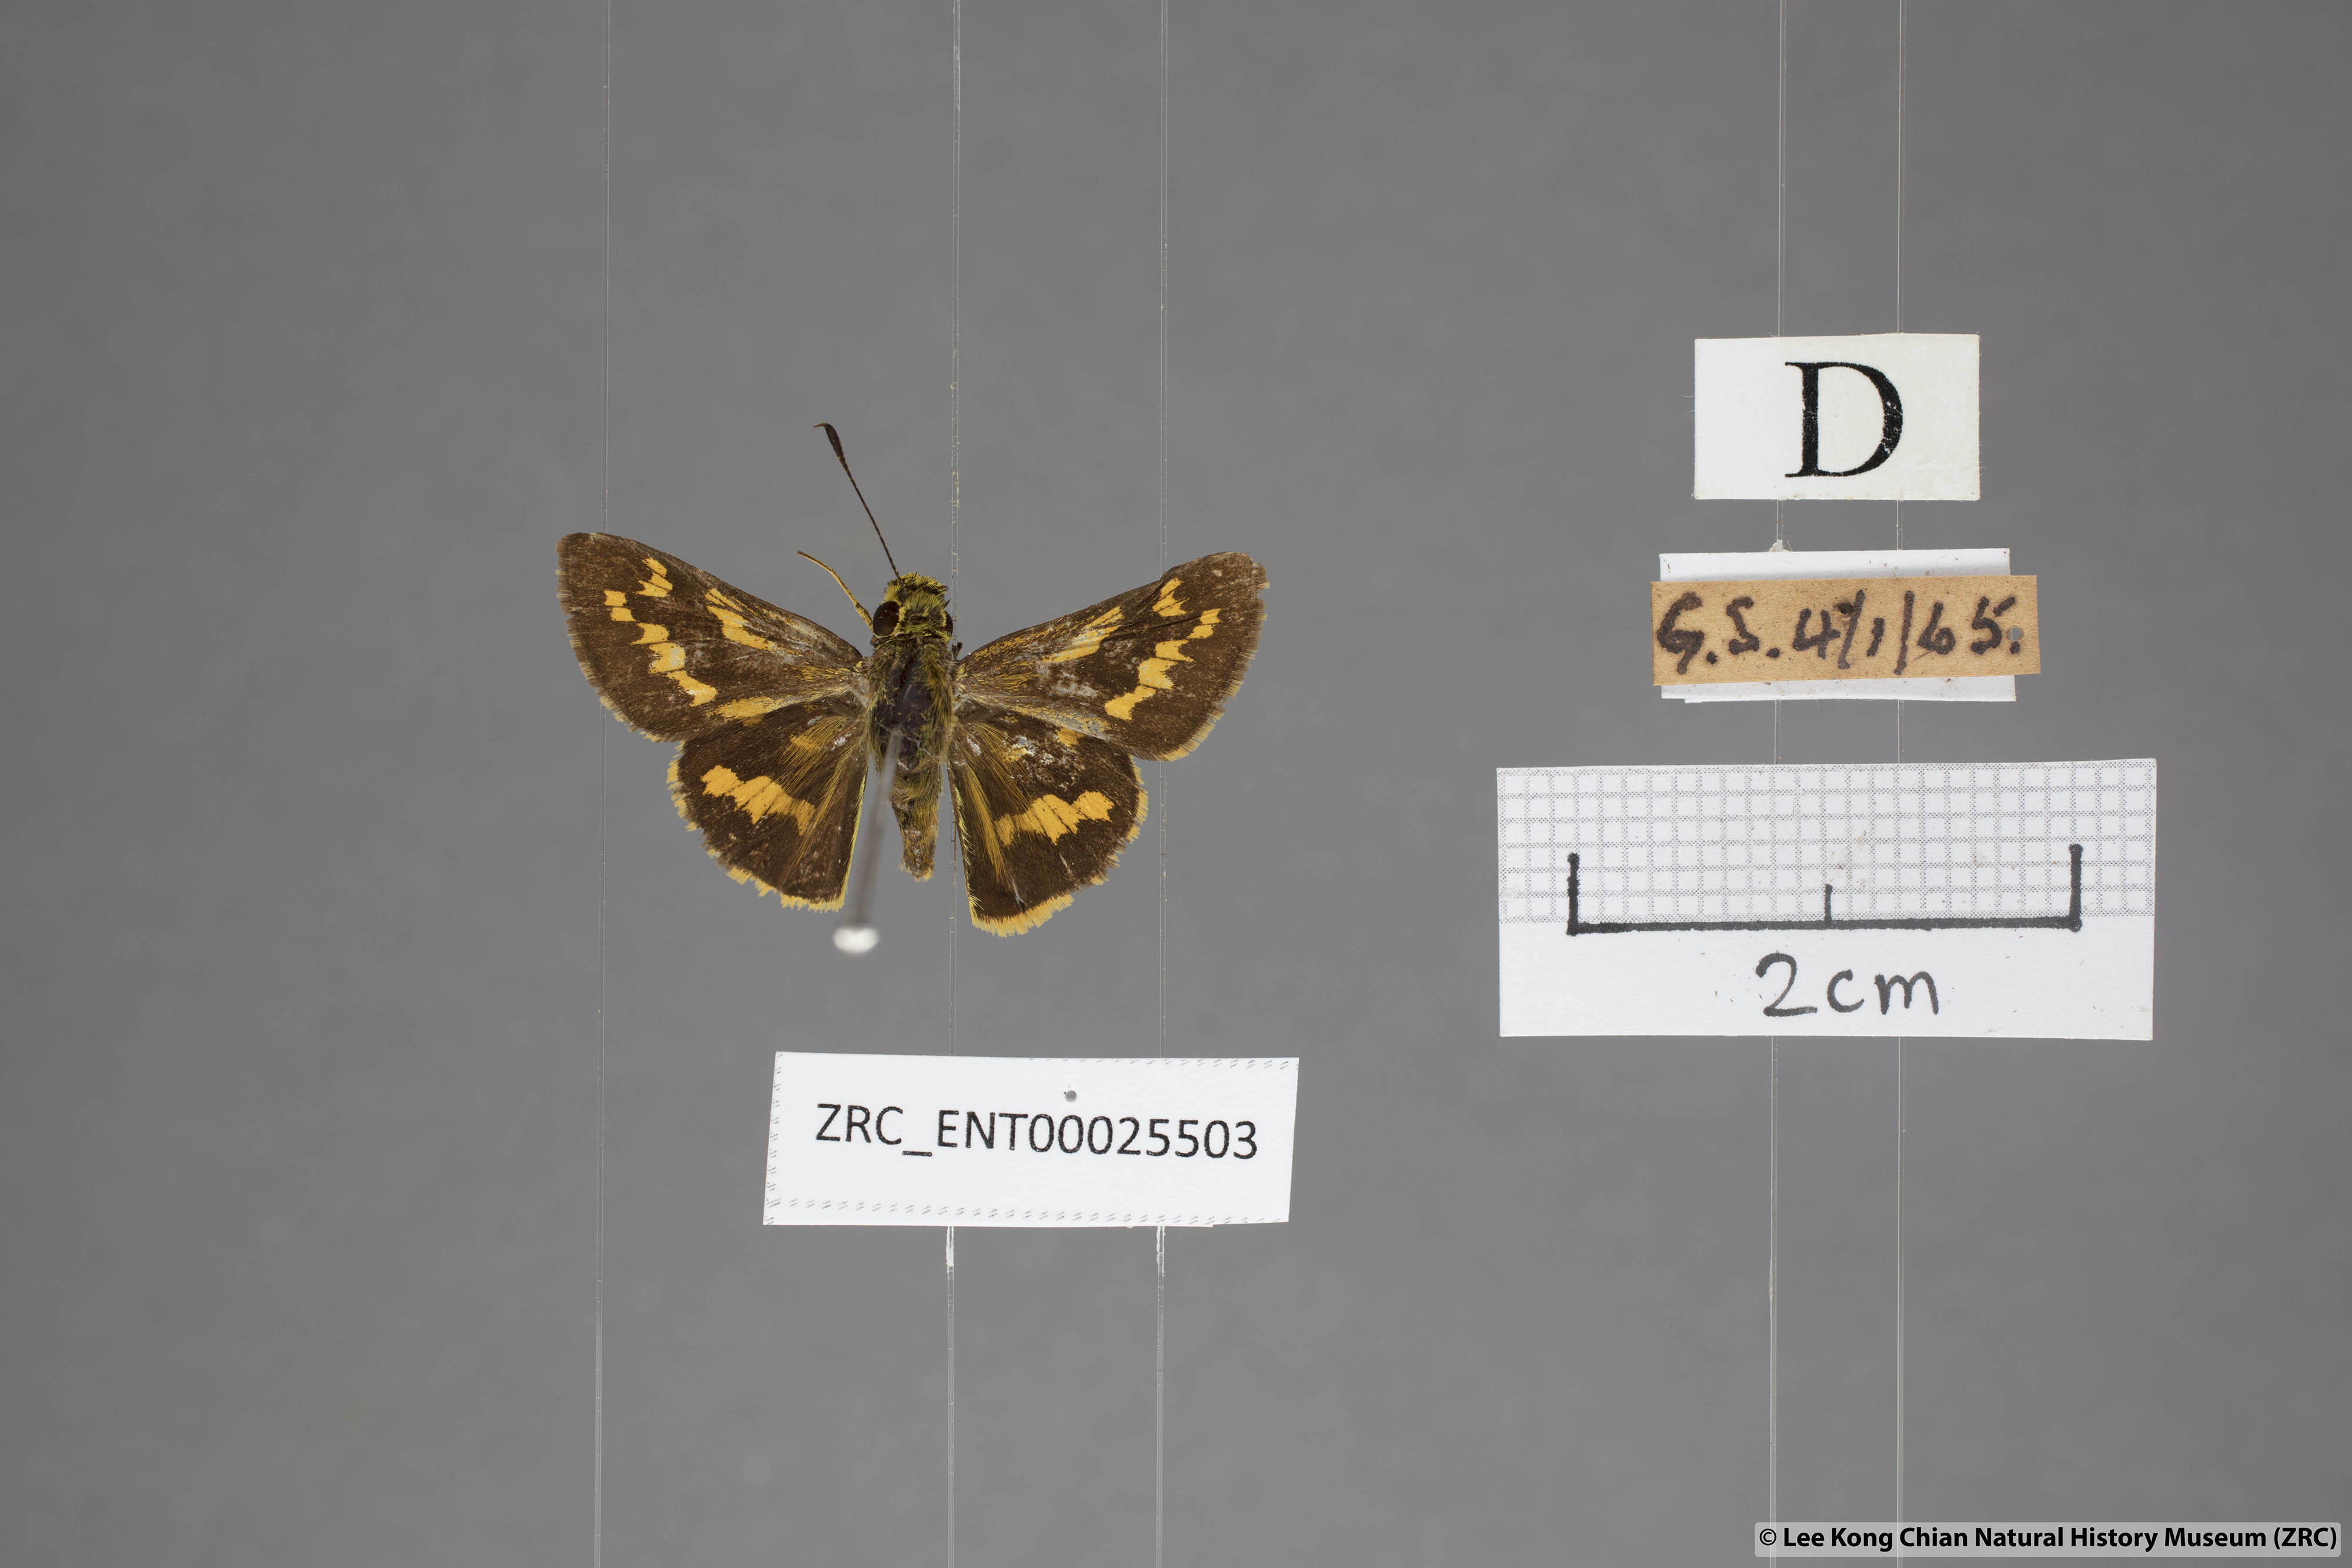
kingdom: Animalia
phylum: Arthropoda
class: Insecta
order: Lepidoptera
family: Hesperiidae
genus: Potanthus
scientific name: Potanthus trachala
